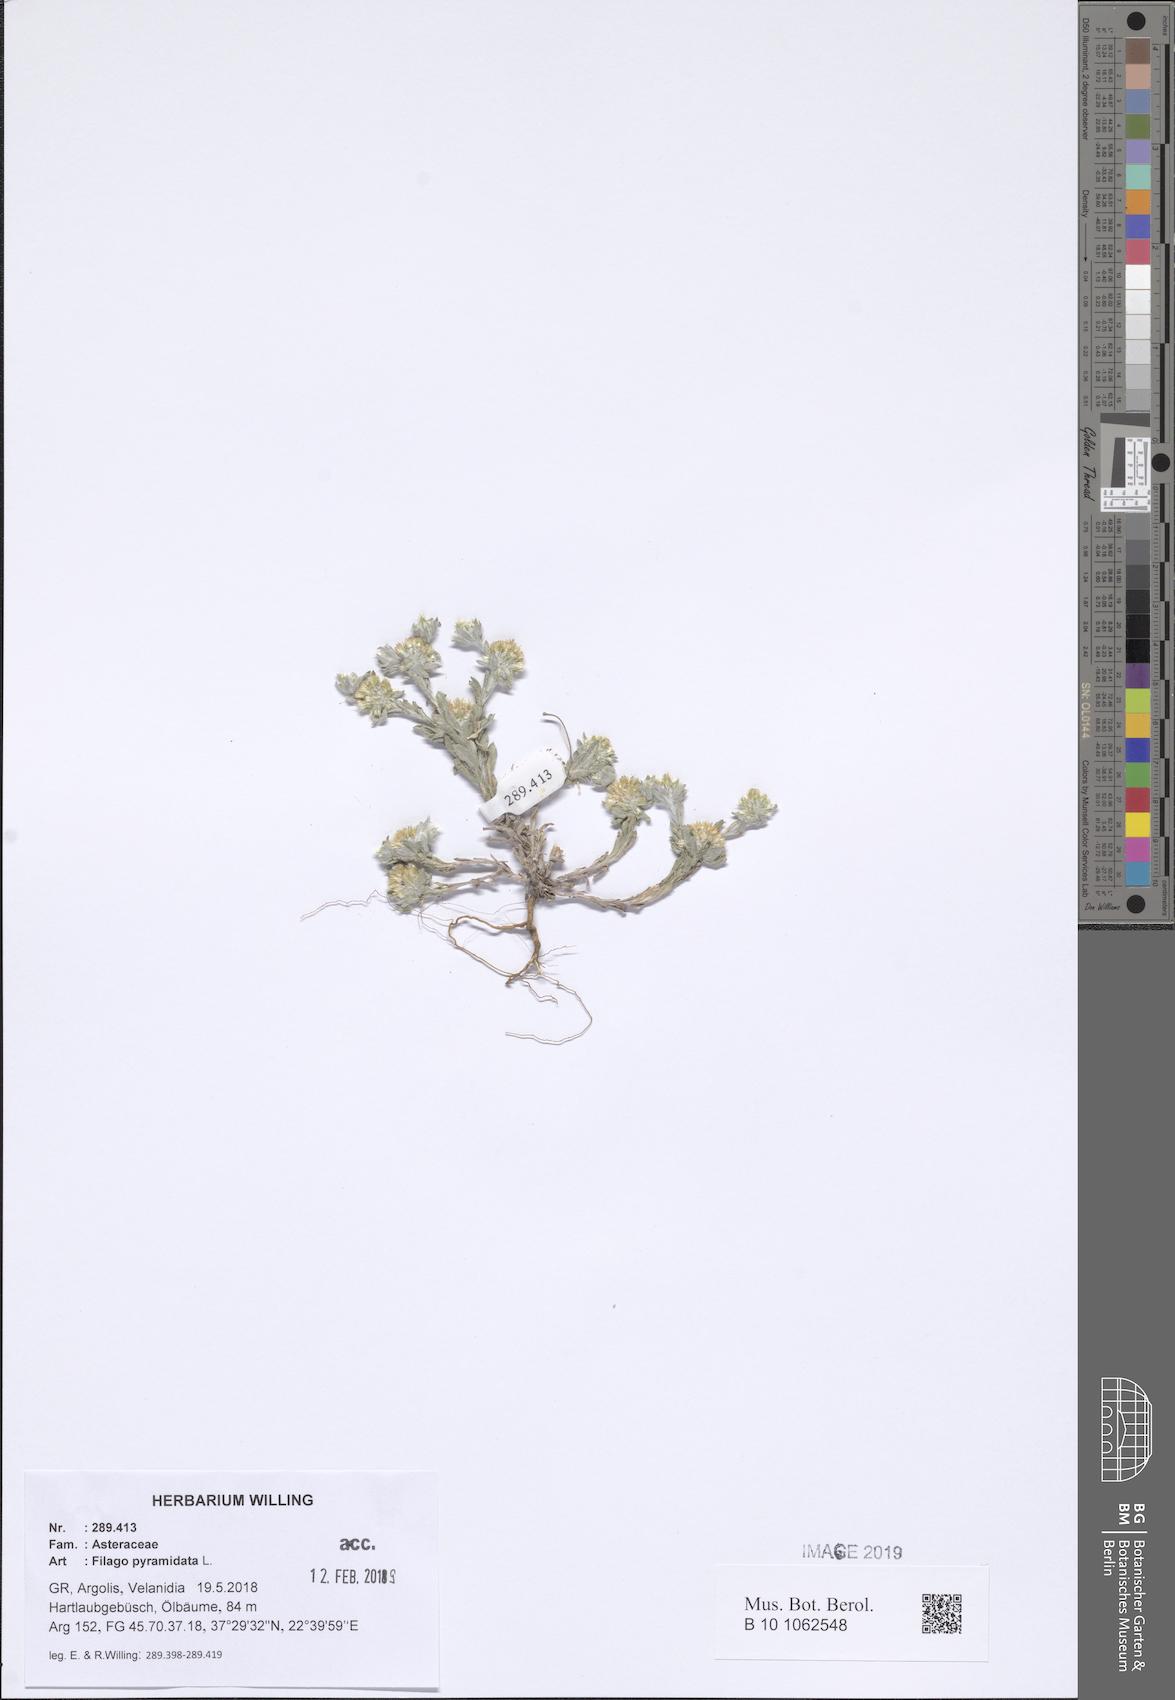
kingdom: Plantae
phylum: Tracheophyta
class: Magnoliopsida
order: Asterales
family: Asteraceae
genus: Filago
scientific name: Filago pyramidata
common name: Broad-leaved cudweed
